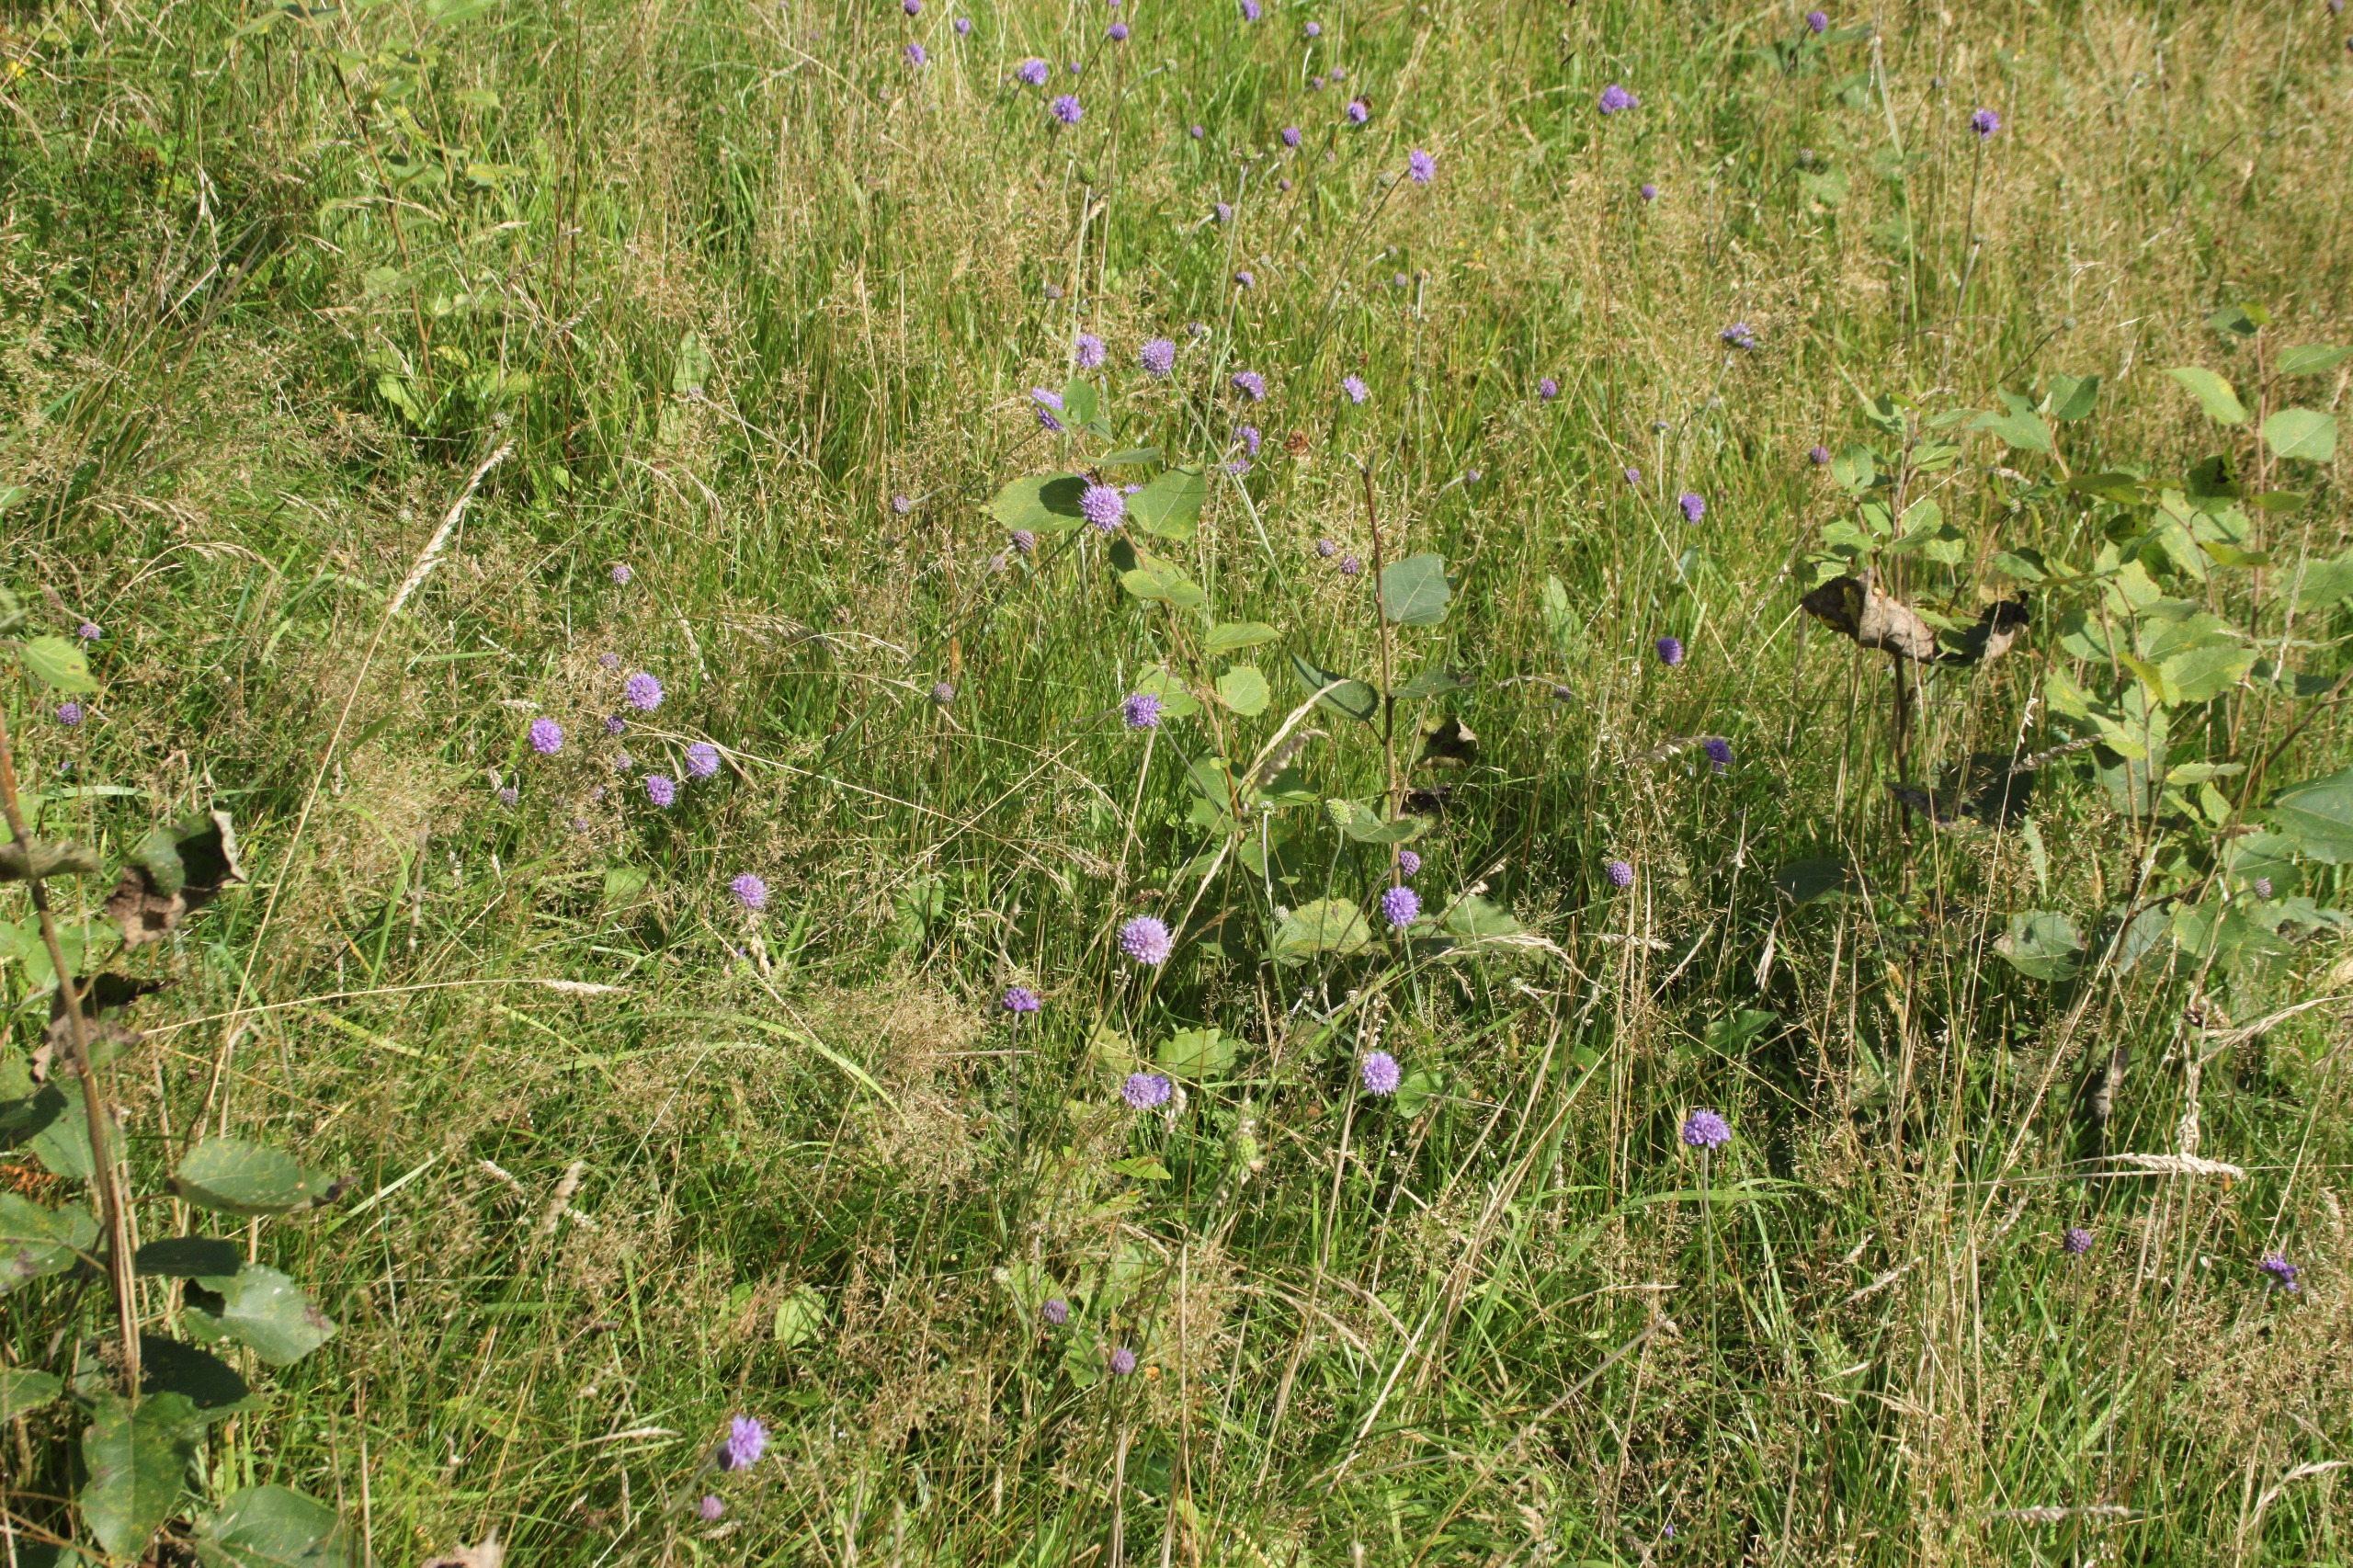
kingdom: Plantae
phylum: Tracheophyta
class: Magnoliopsida
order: Dipsacales
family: Caprifoliaceae
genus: Succisa
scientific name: Succisa pratensis
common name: Djævelsbid
